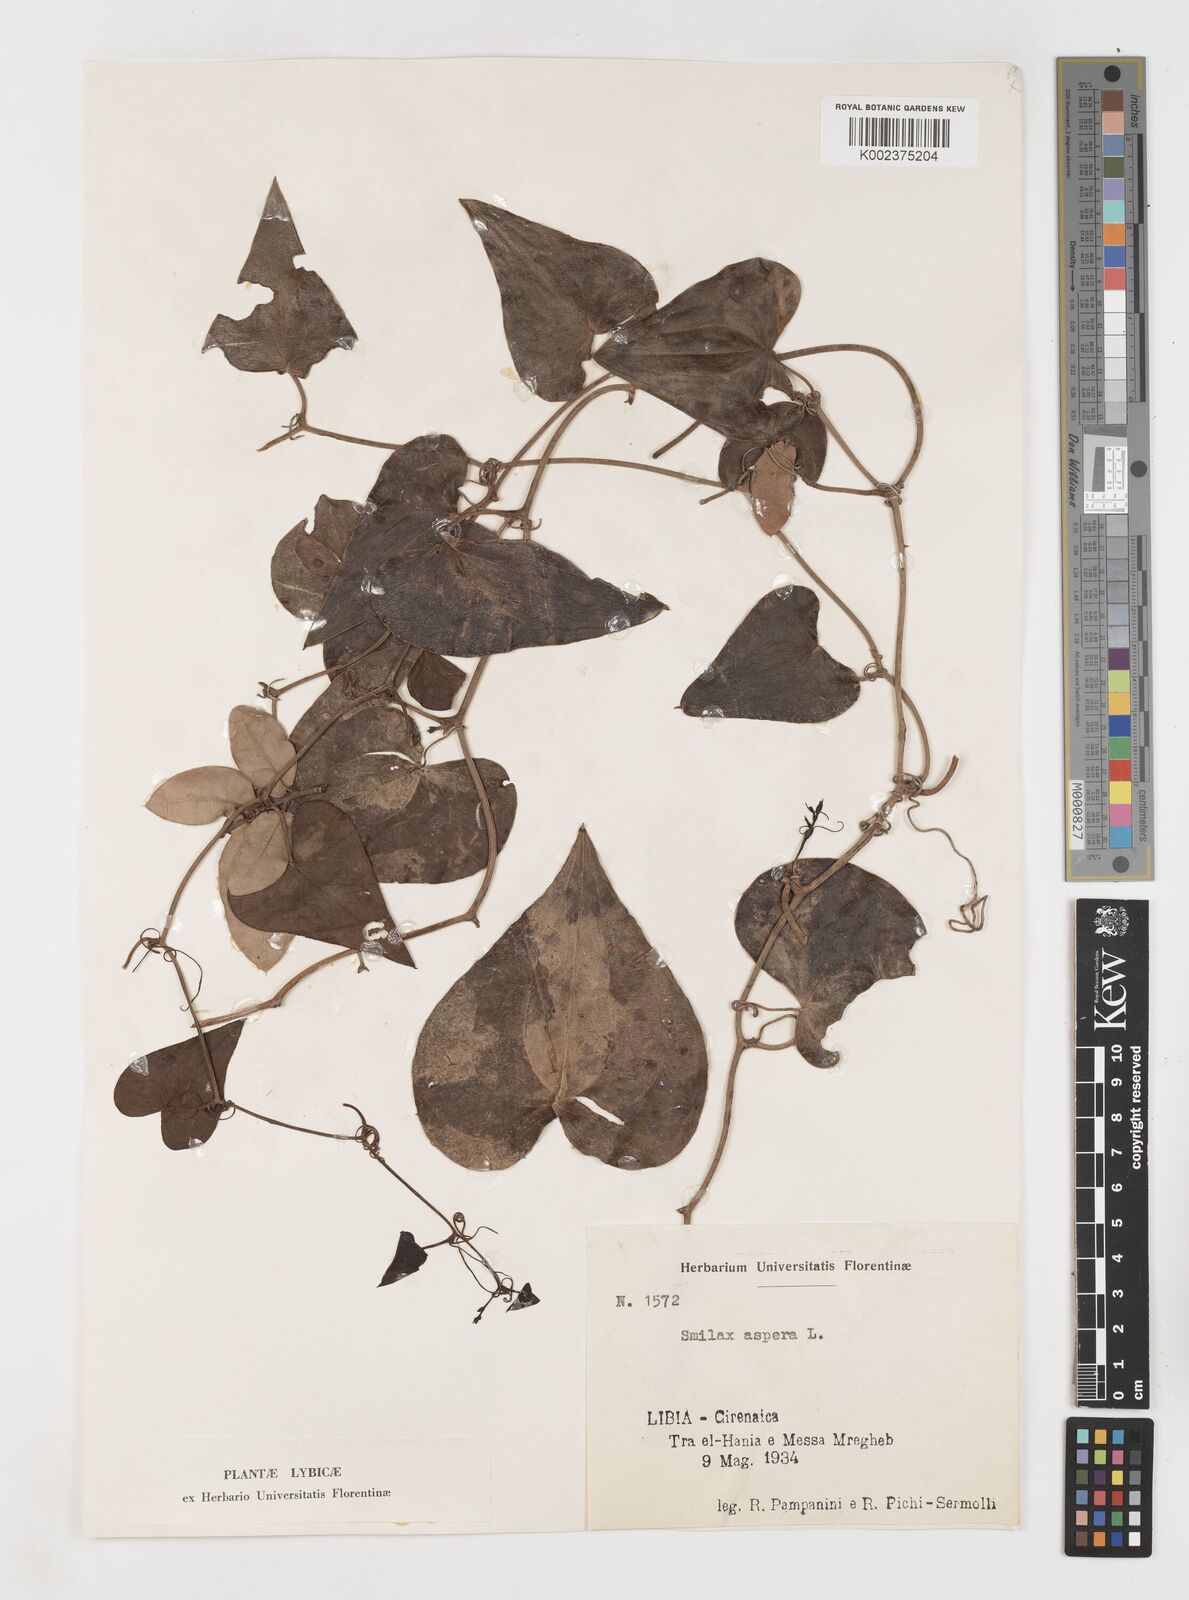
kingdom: Plantae
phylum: Tracheophyta
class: Liliopsida
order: Liliales
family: Smilacaceae
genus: Smilax
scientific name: Smilax aspera
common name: Common smilax
